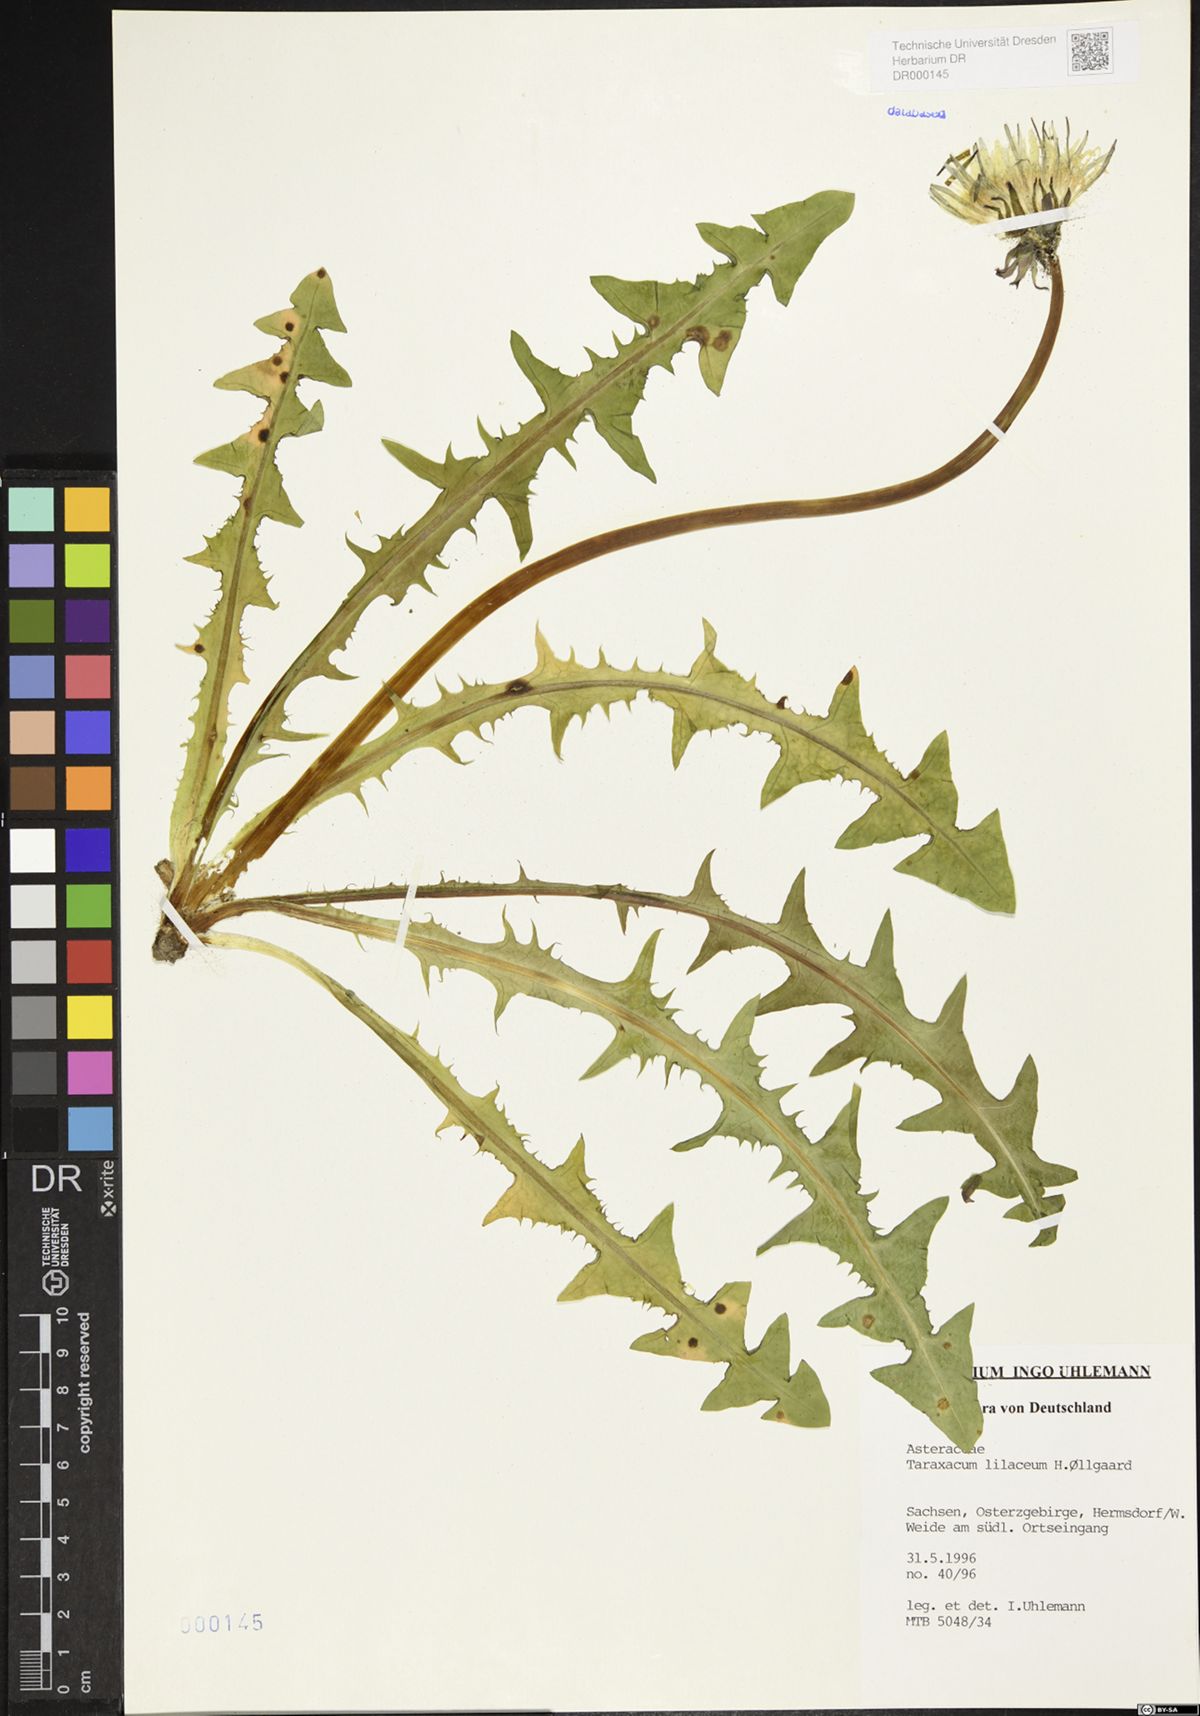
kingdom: Plantae
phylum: Tracheophyta
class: Magnoliopsida
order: Asterales
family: Asteraceae
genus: Taraxacum
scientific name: Taraxacum floccosum
